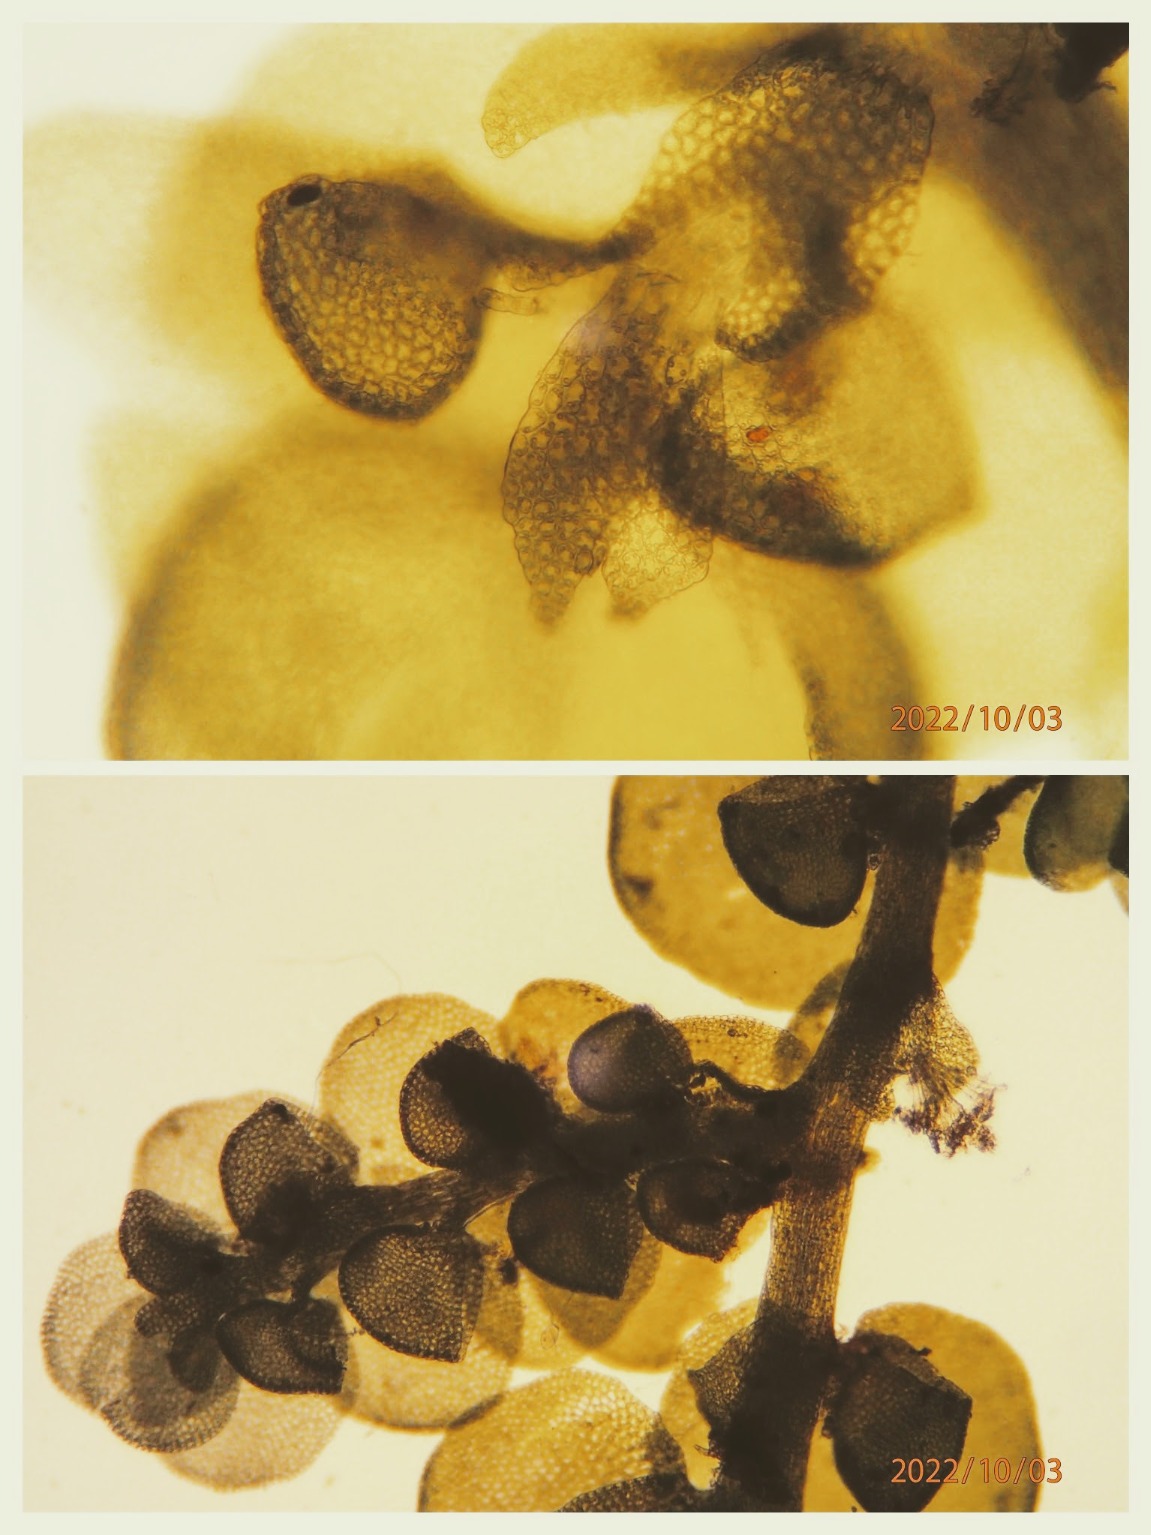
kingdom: Plantae
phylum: Marchantiophyta
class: Jungermanniopsida
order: Porellales
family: Frullaniaceae
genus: Frullania
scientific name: Frullania dilatata
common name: Mat bronzemos
